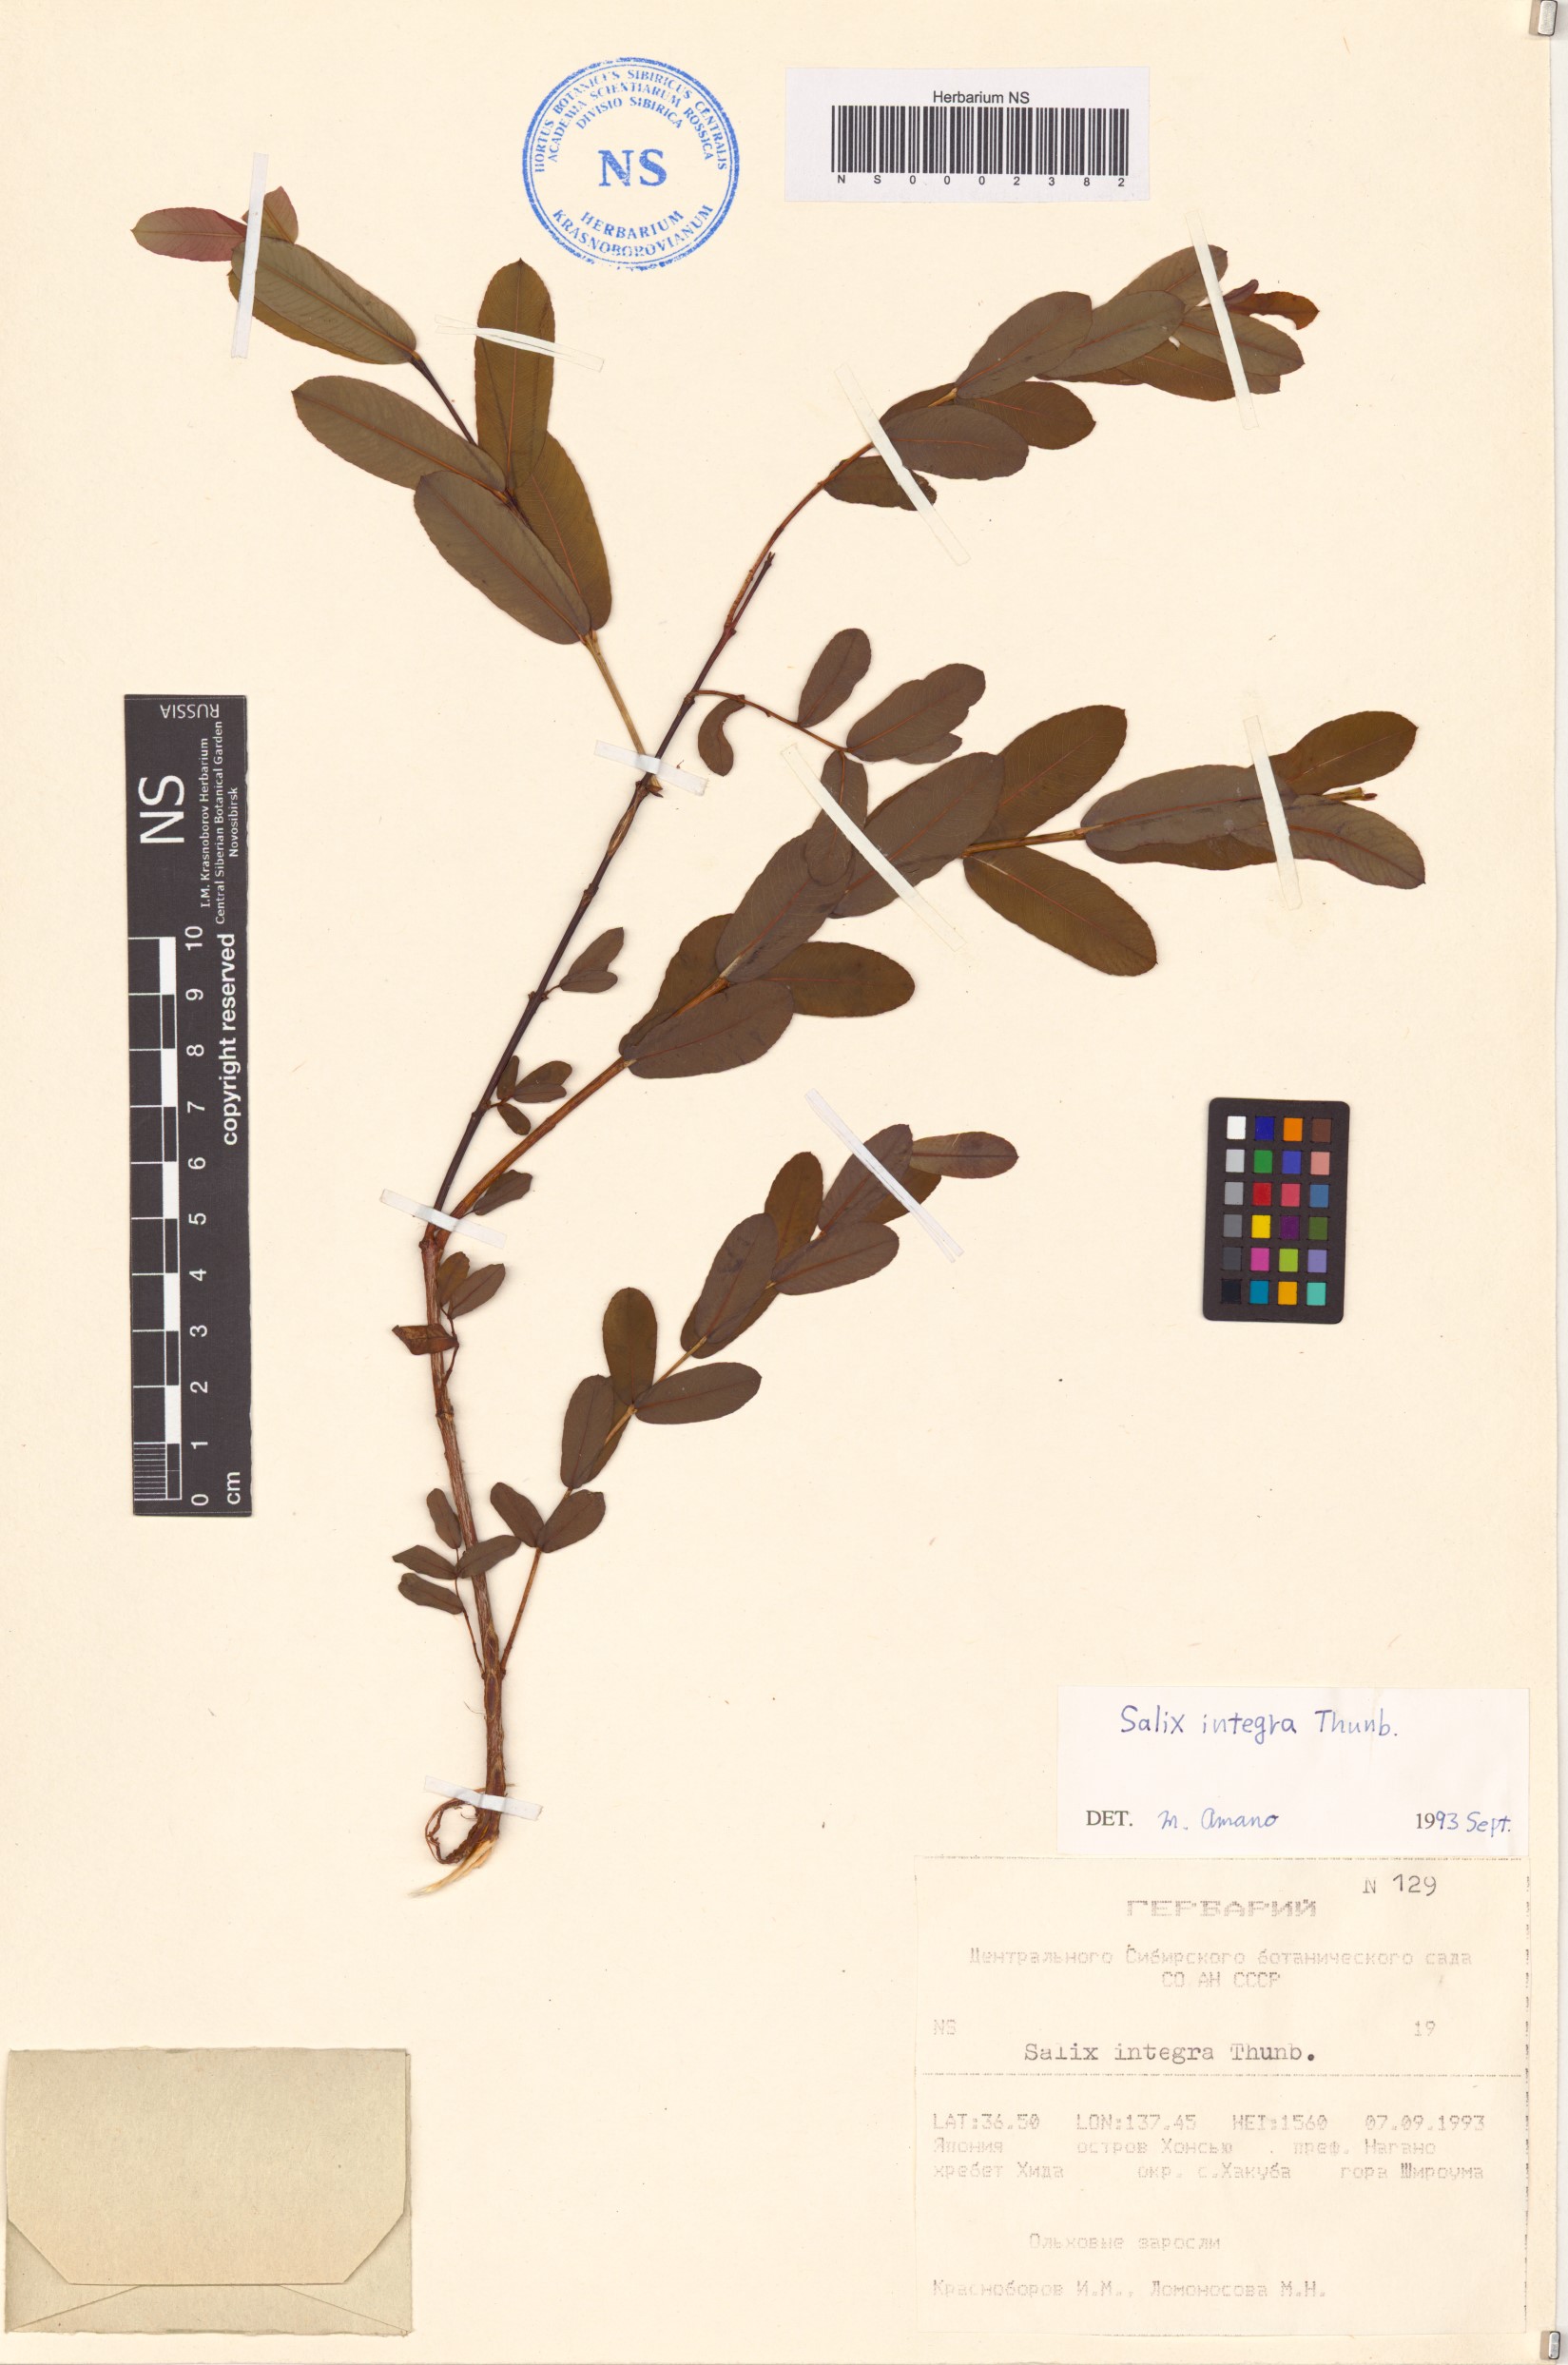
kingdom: Plantae
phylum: Tracheophyta
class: Magnoliopsida
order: Malpighiales
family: Salicaceae
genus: Salix
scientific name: Salix integra
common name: Dappled willow
